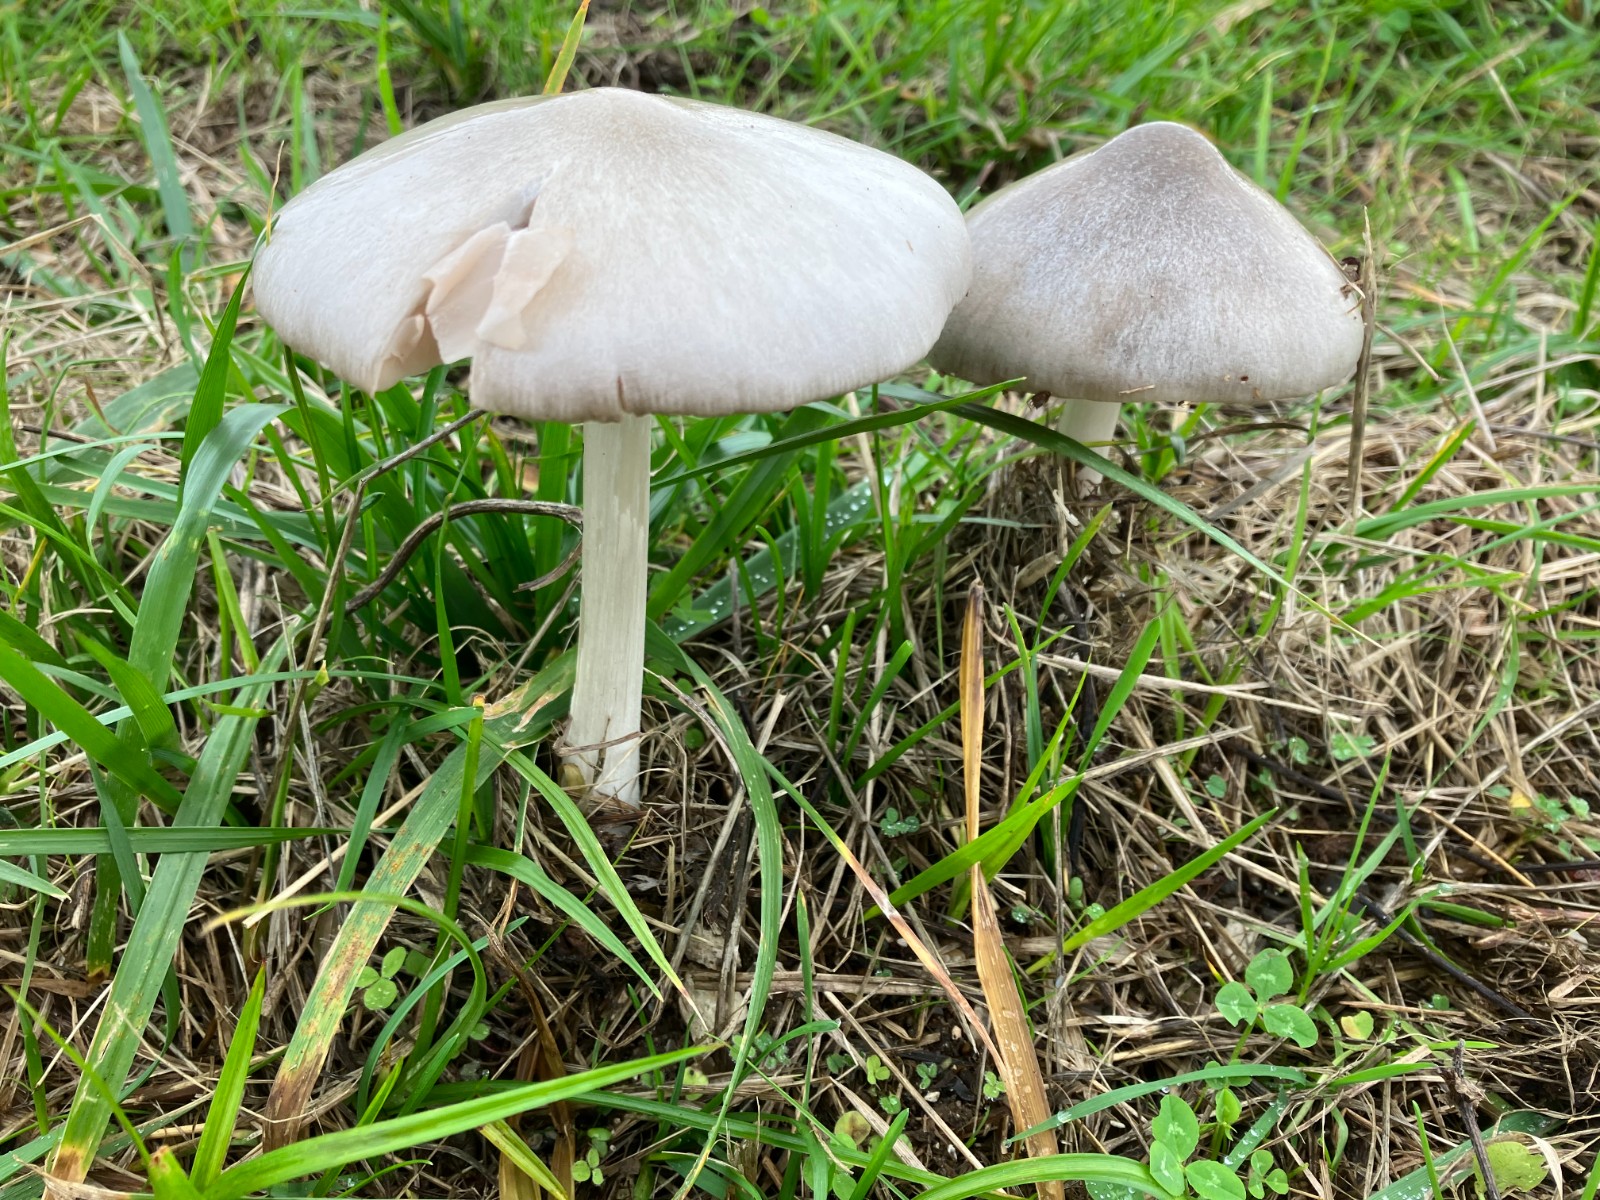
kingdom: Fungi
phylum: Basidiomycota
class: Agaricomycetes
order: Agaricales
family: Pluteaceae
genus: Volvopluteus
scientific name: Volvopluteus gloiocephalus
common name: høj posesvamp
